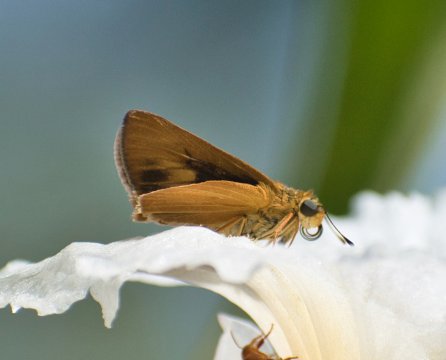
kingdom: Animalia
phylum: Arthropoda
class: Insecta
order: Lepidoptera
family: Hesperiidae
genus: Atrytone
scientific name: Atrytone Anatrytone mella
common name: Mella Skipper
